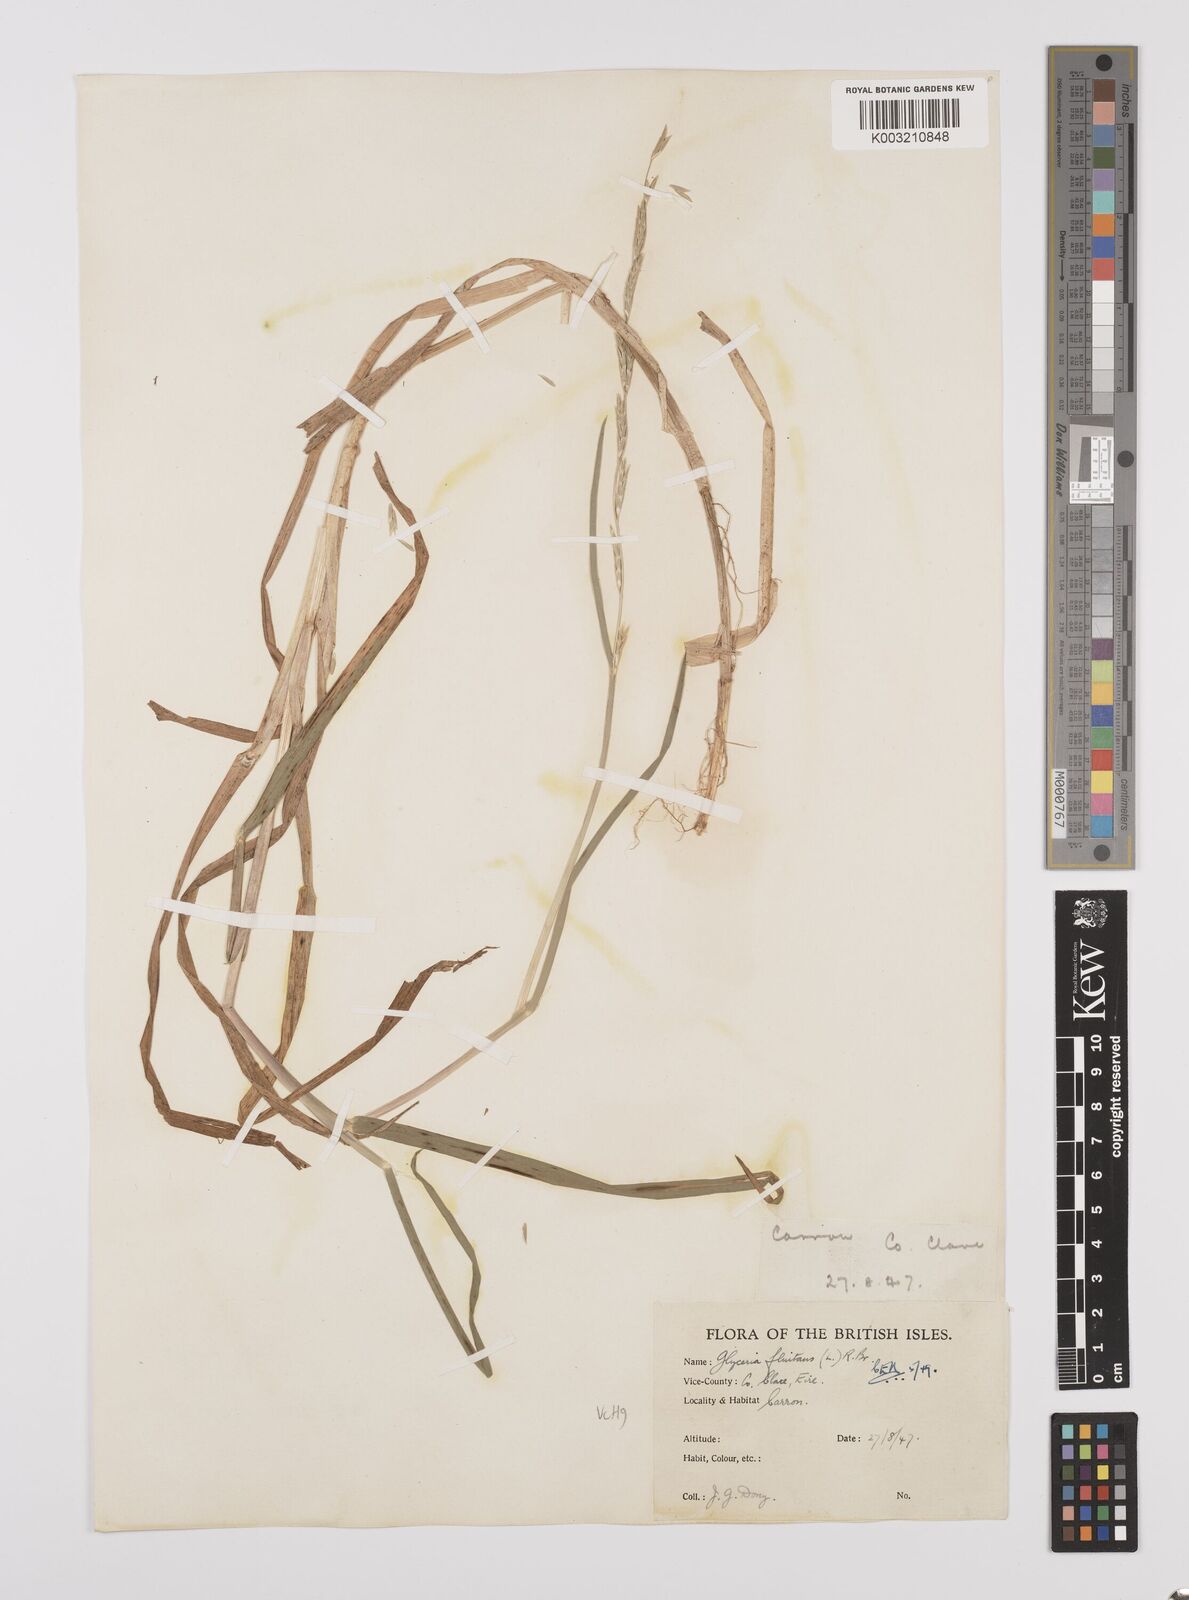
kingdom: Plantae
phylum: Tracheophyta
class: Liliopsida
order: Poales
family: Poaceae
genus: Glyceria
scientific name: Glyceria fluitans
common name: Floating sweet-grass
